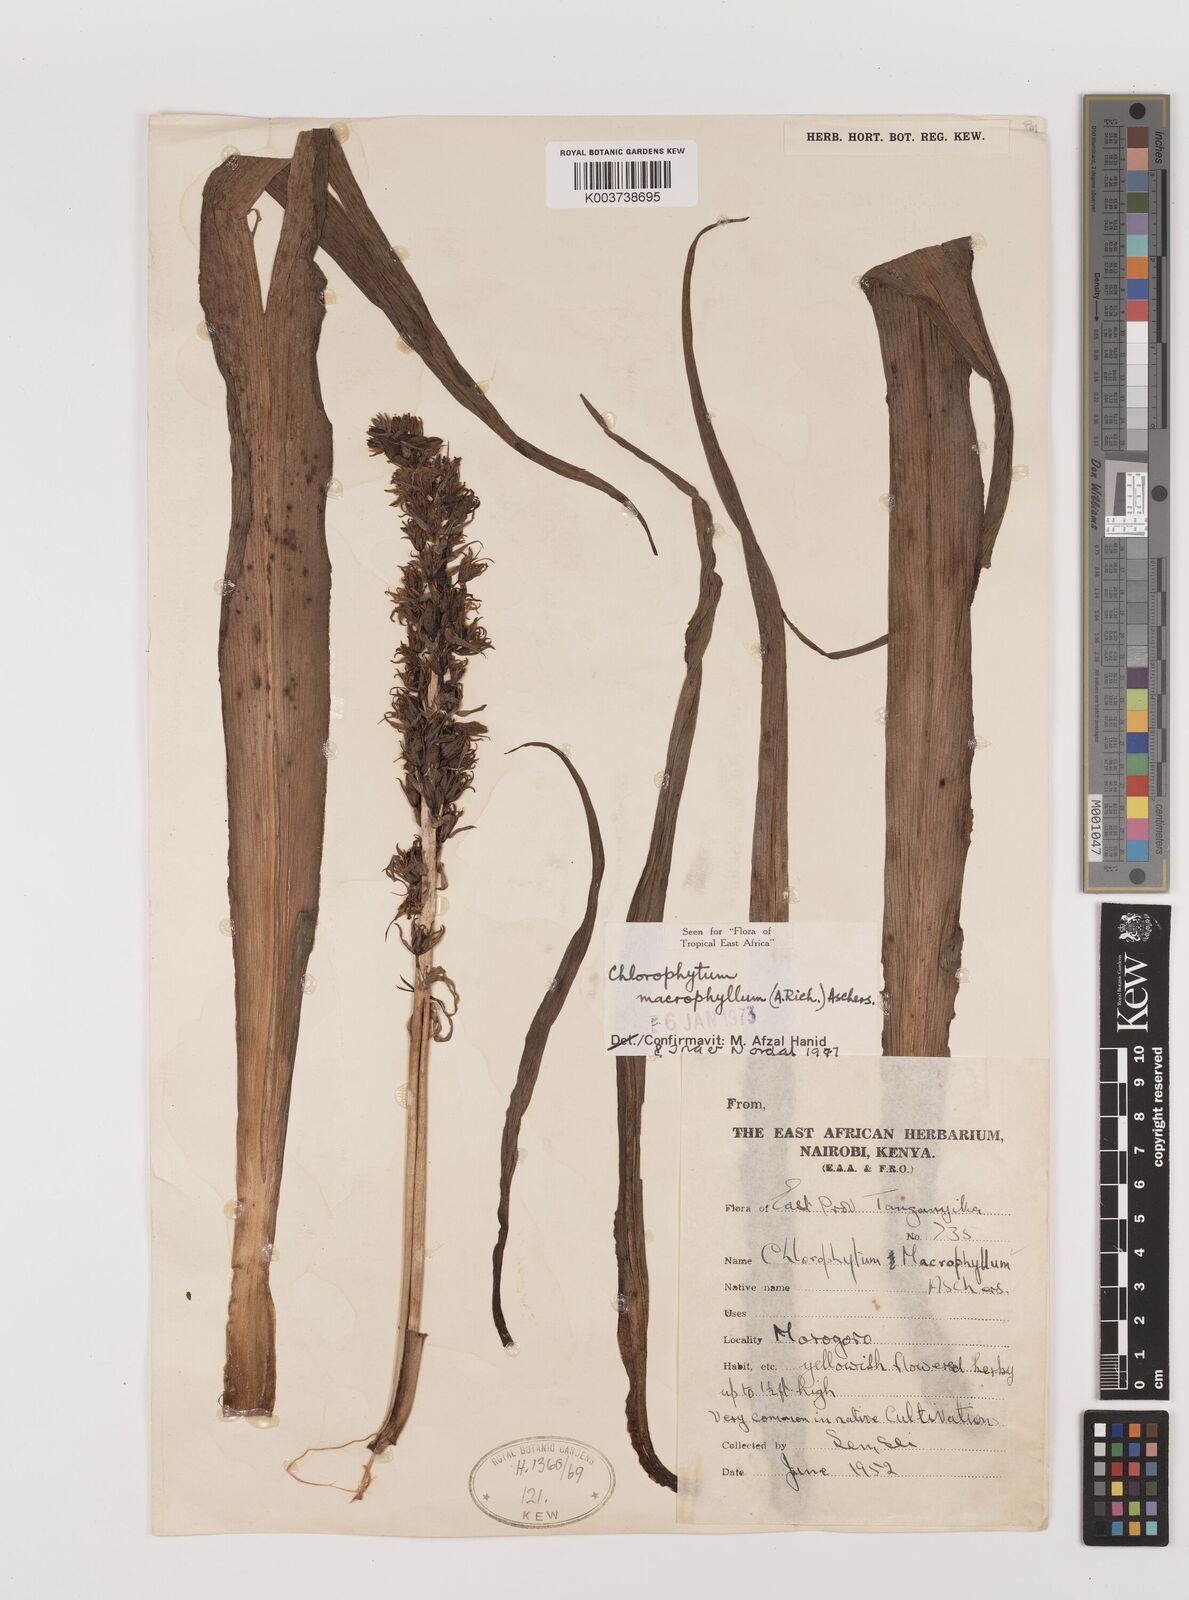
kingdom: Plantae
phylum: Tracheophyta
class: Liliopsida
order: Asparagales
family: Asparagaceae
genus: Chlorophytum
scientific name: Chlorophytum macrophyllum
